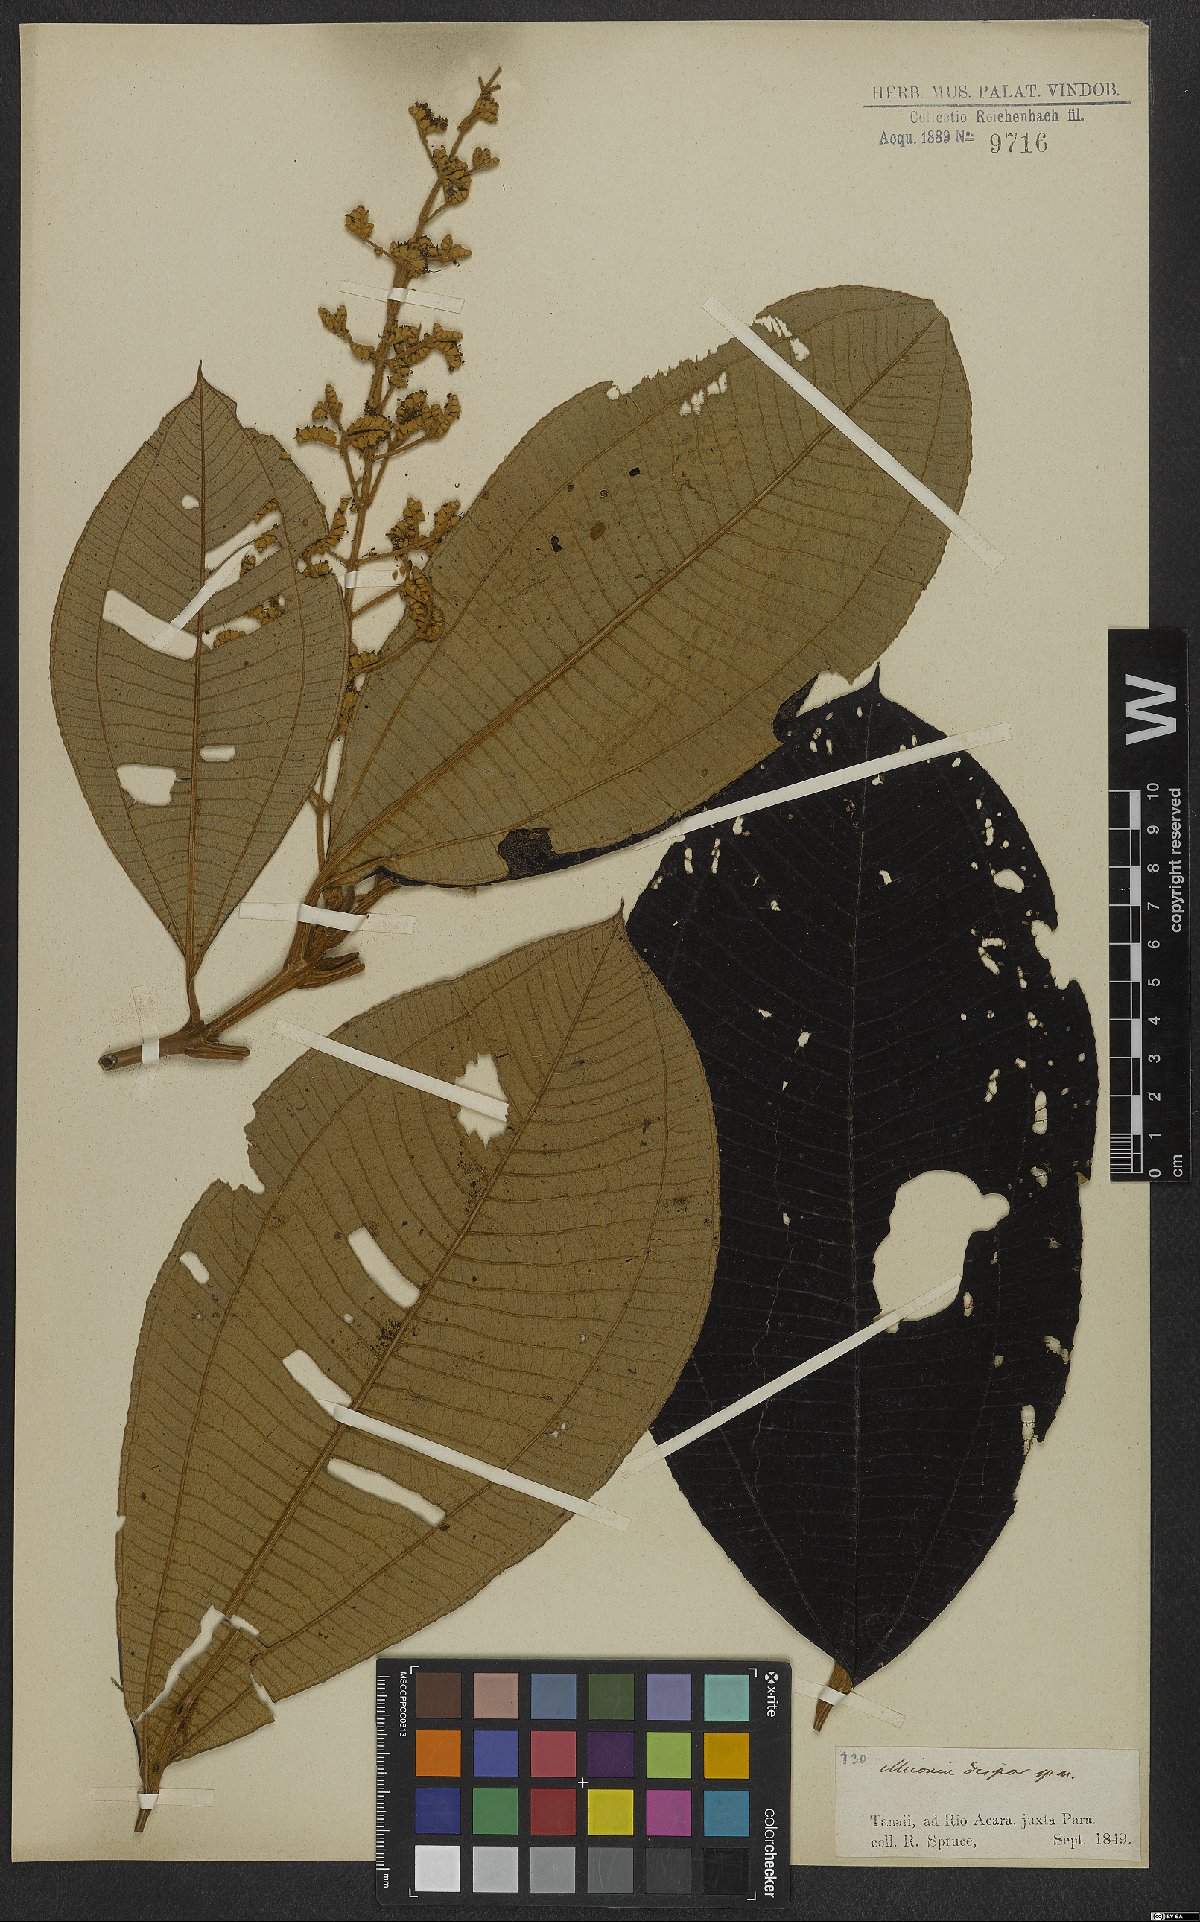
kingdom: Plantae
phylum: Tracheophyta
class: Magnoliopsida
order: Myrtales
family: Melastomataceae
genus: Miconia
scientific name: Miconia dispar
